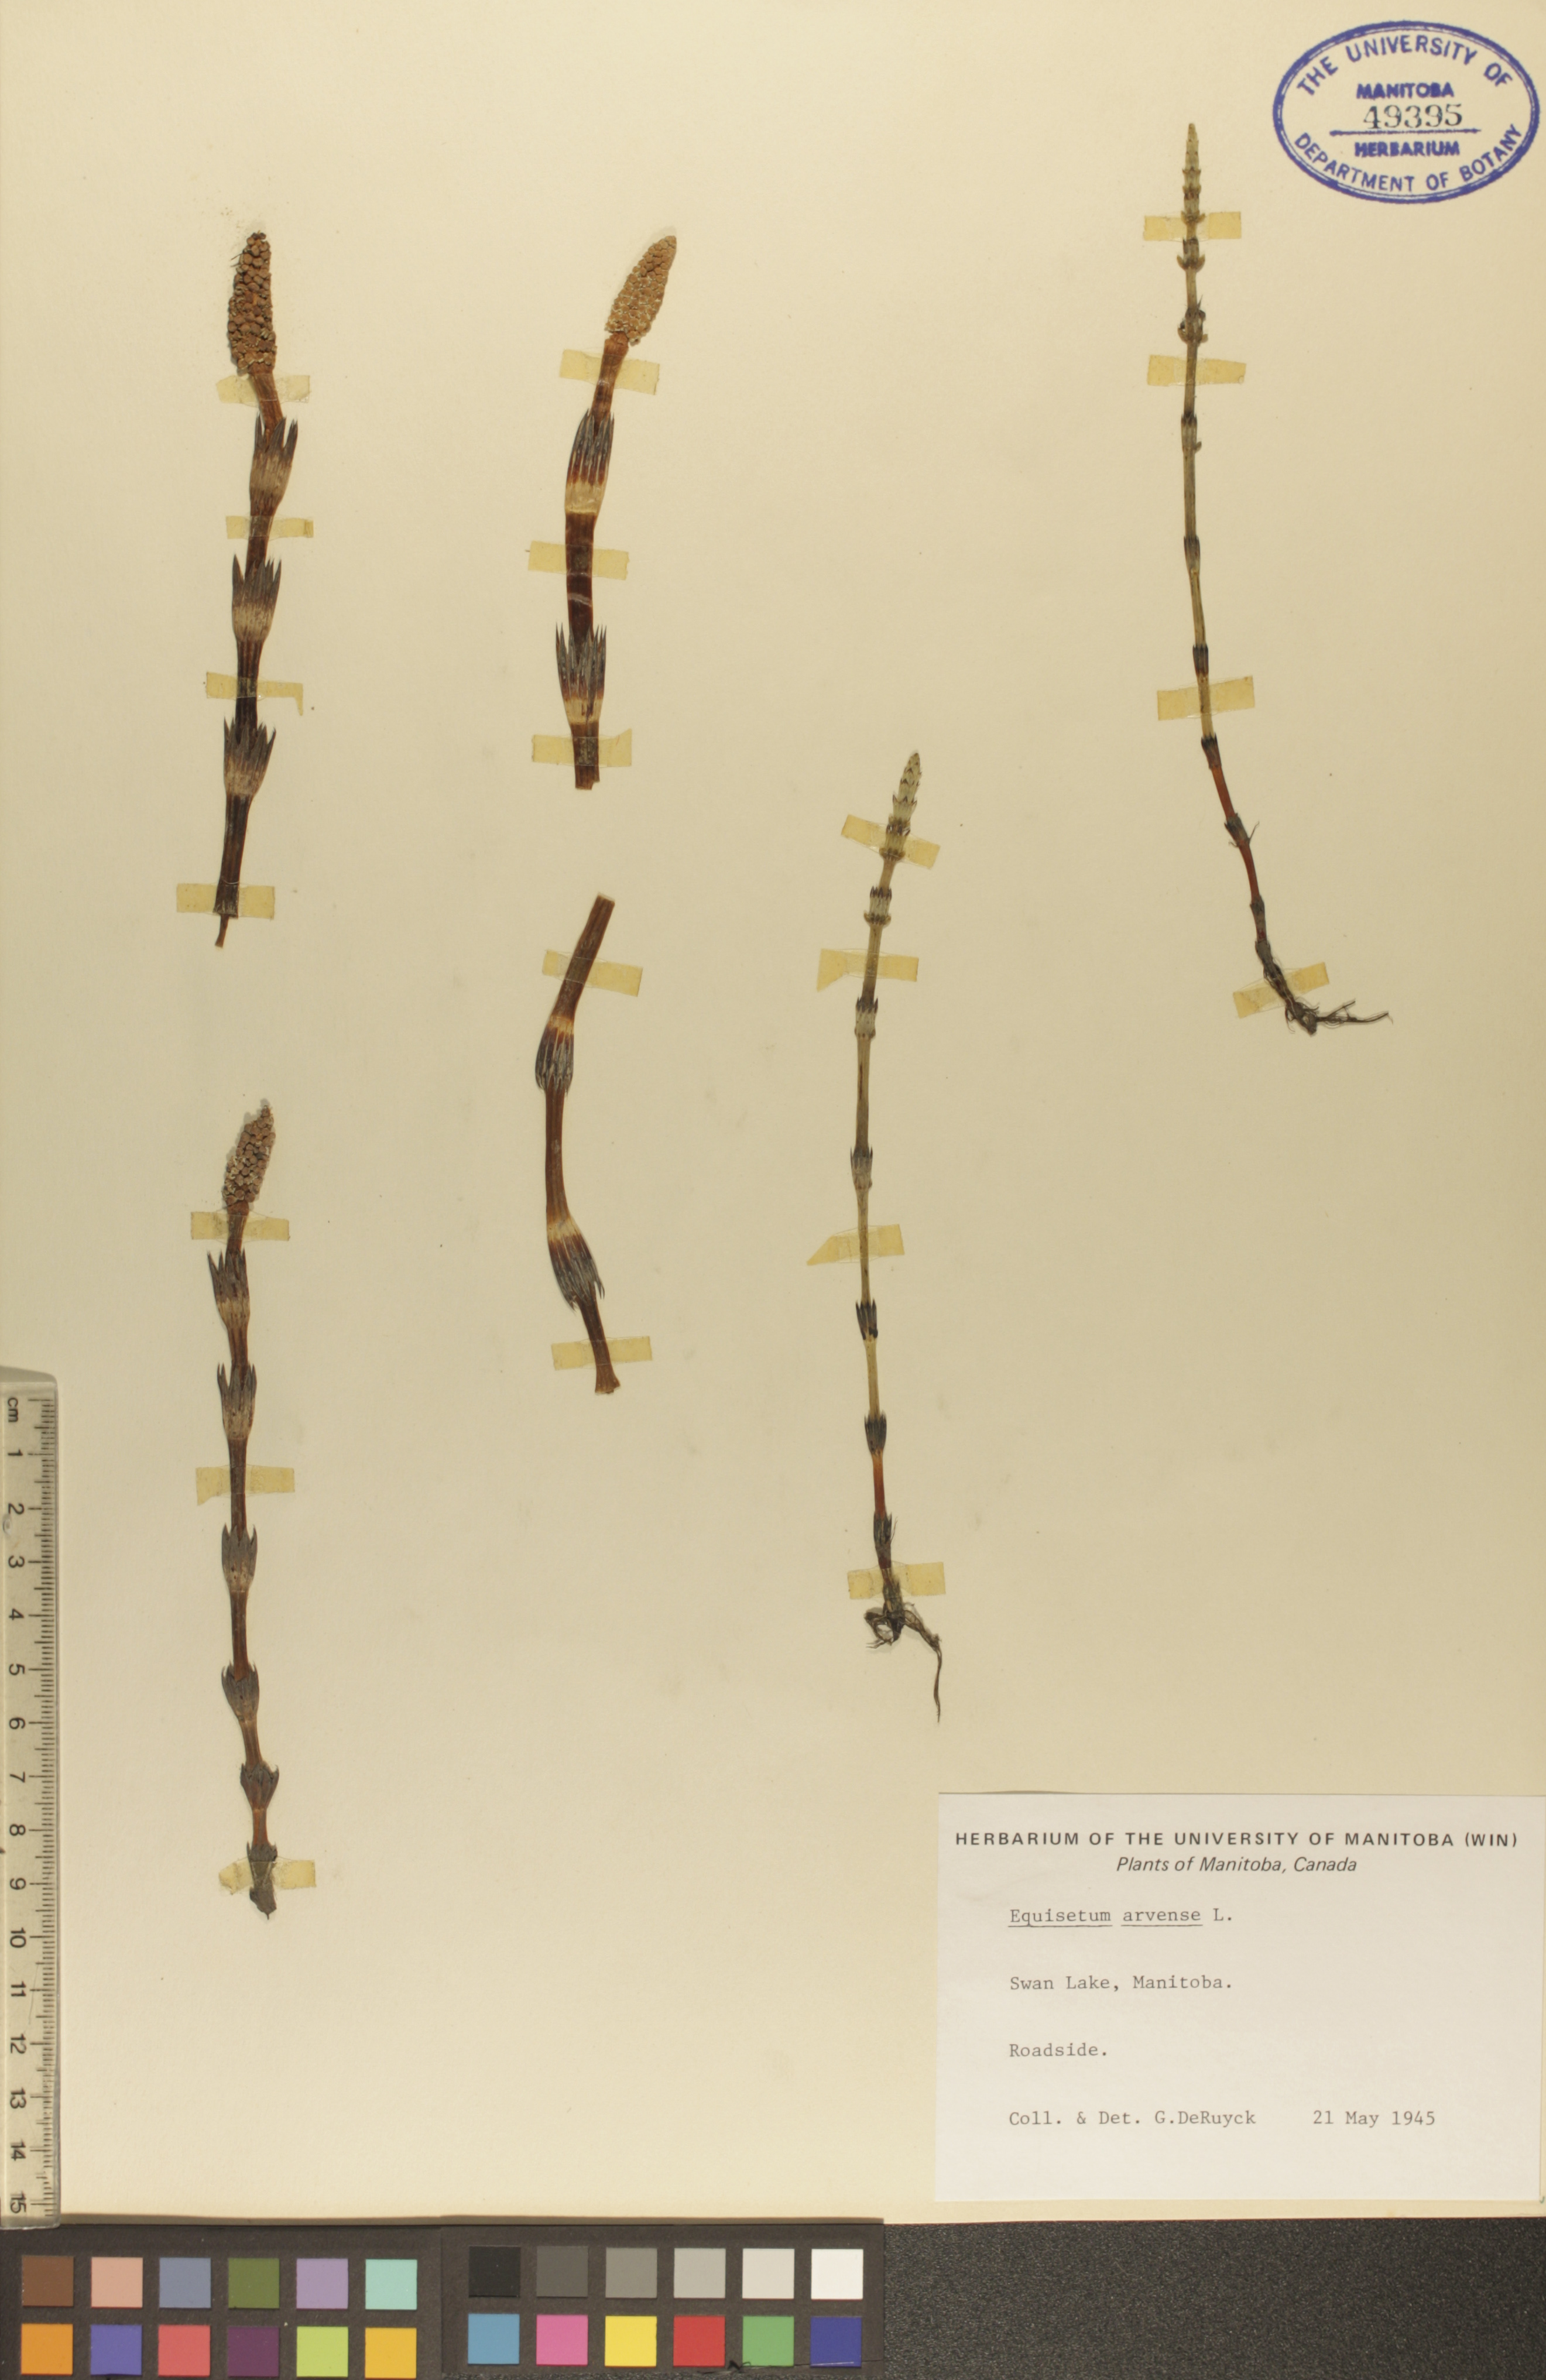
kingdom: Plantae
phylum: Tracheophyta
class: Polypodiopsida
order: Equisetales
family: Equisetaceae
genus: Equisetum
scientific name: Equisetum arvense
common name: Field horsetail
